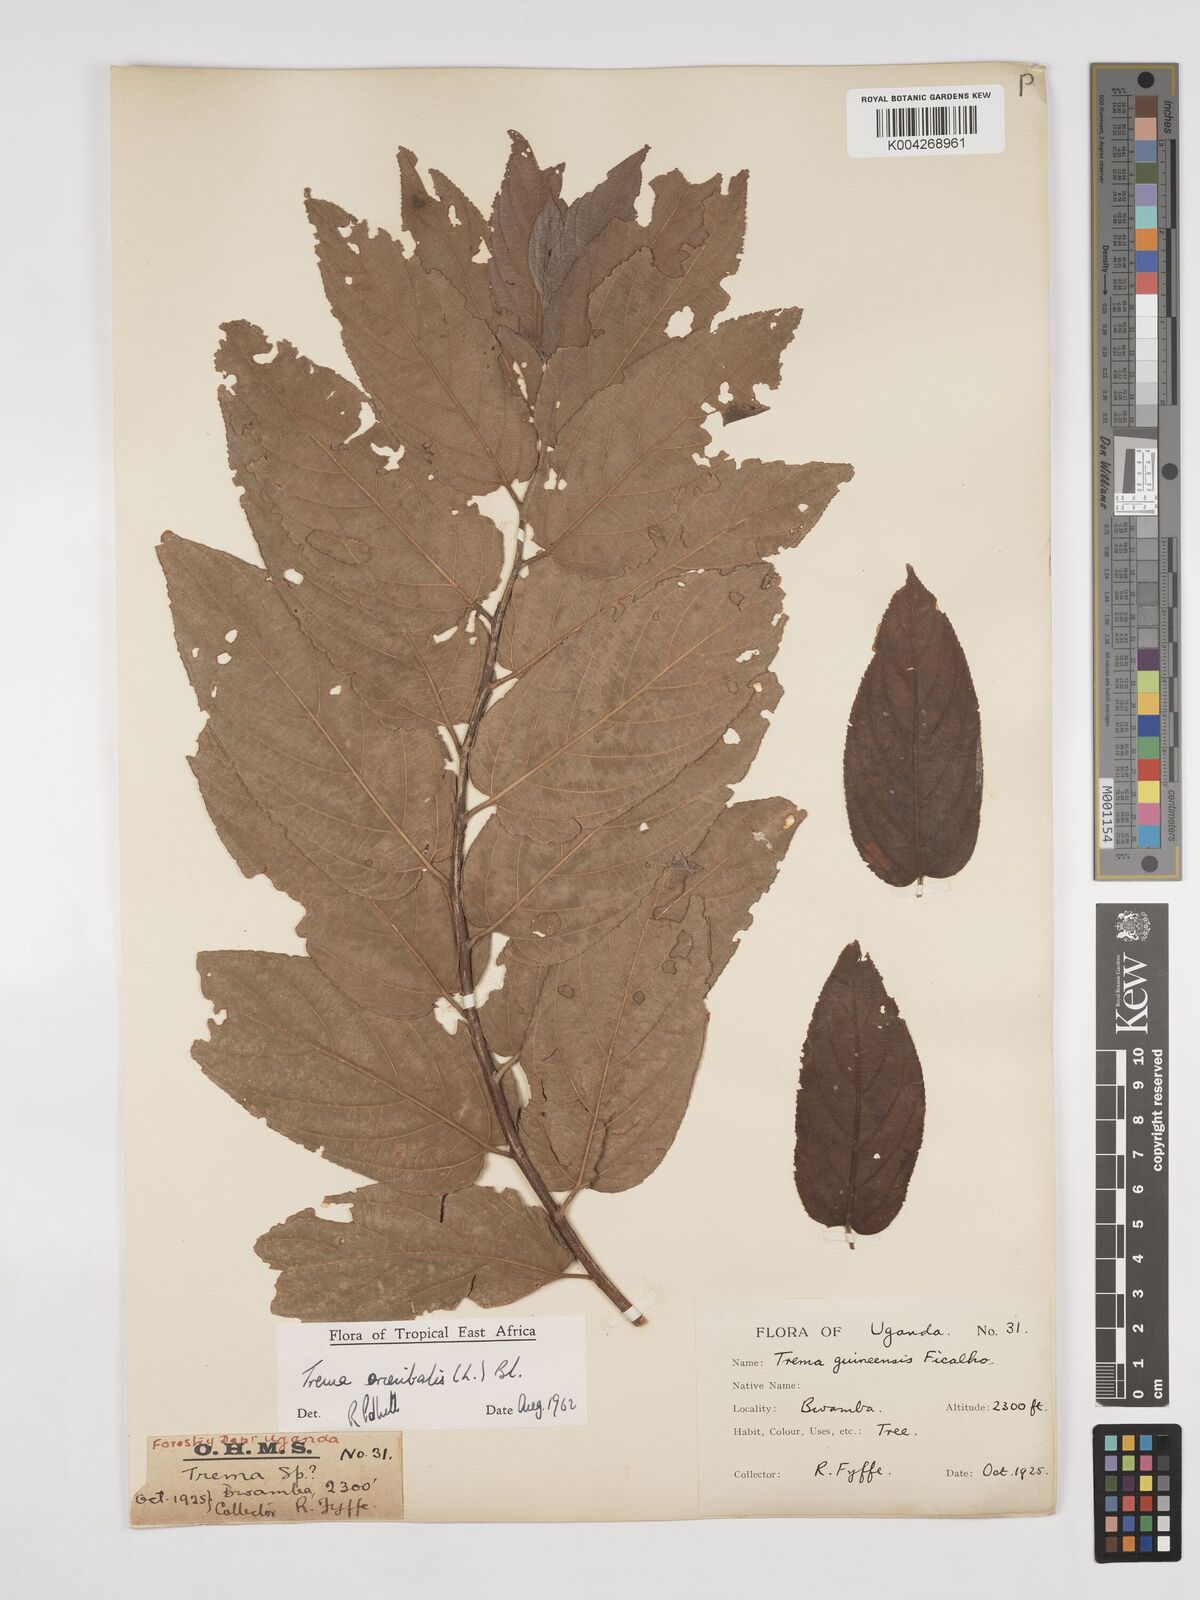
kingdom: Plantae
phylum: Tracheophyta
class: Magnoliopsida
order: Rosales
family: Cannabaceae
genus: Trema
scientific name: Trema orientale
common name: Indian charcoal tree
